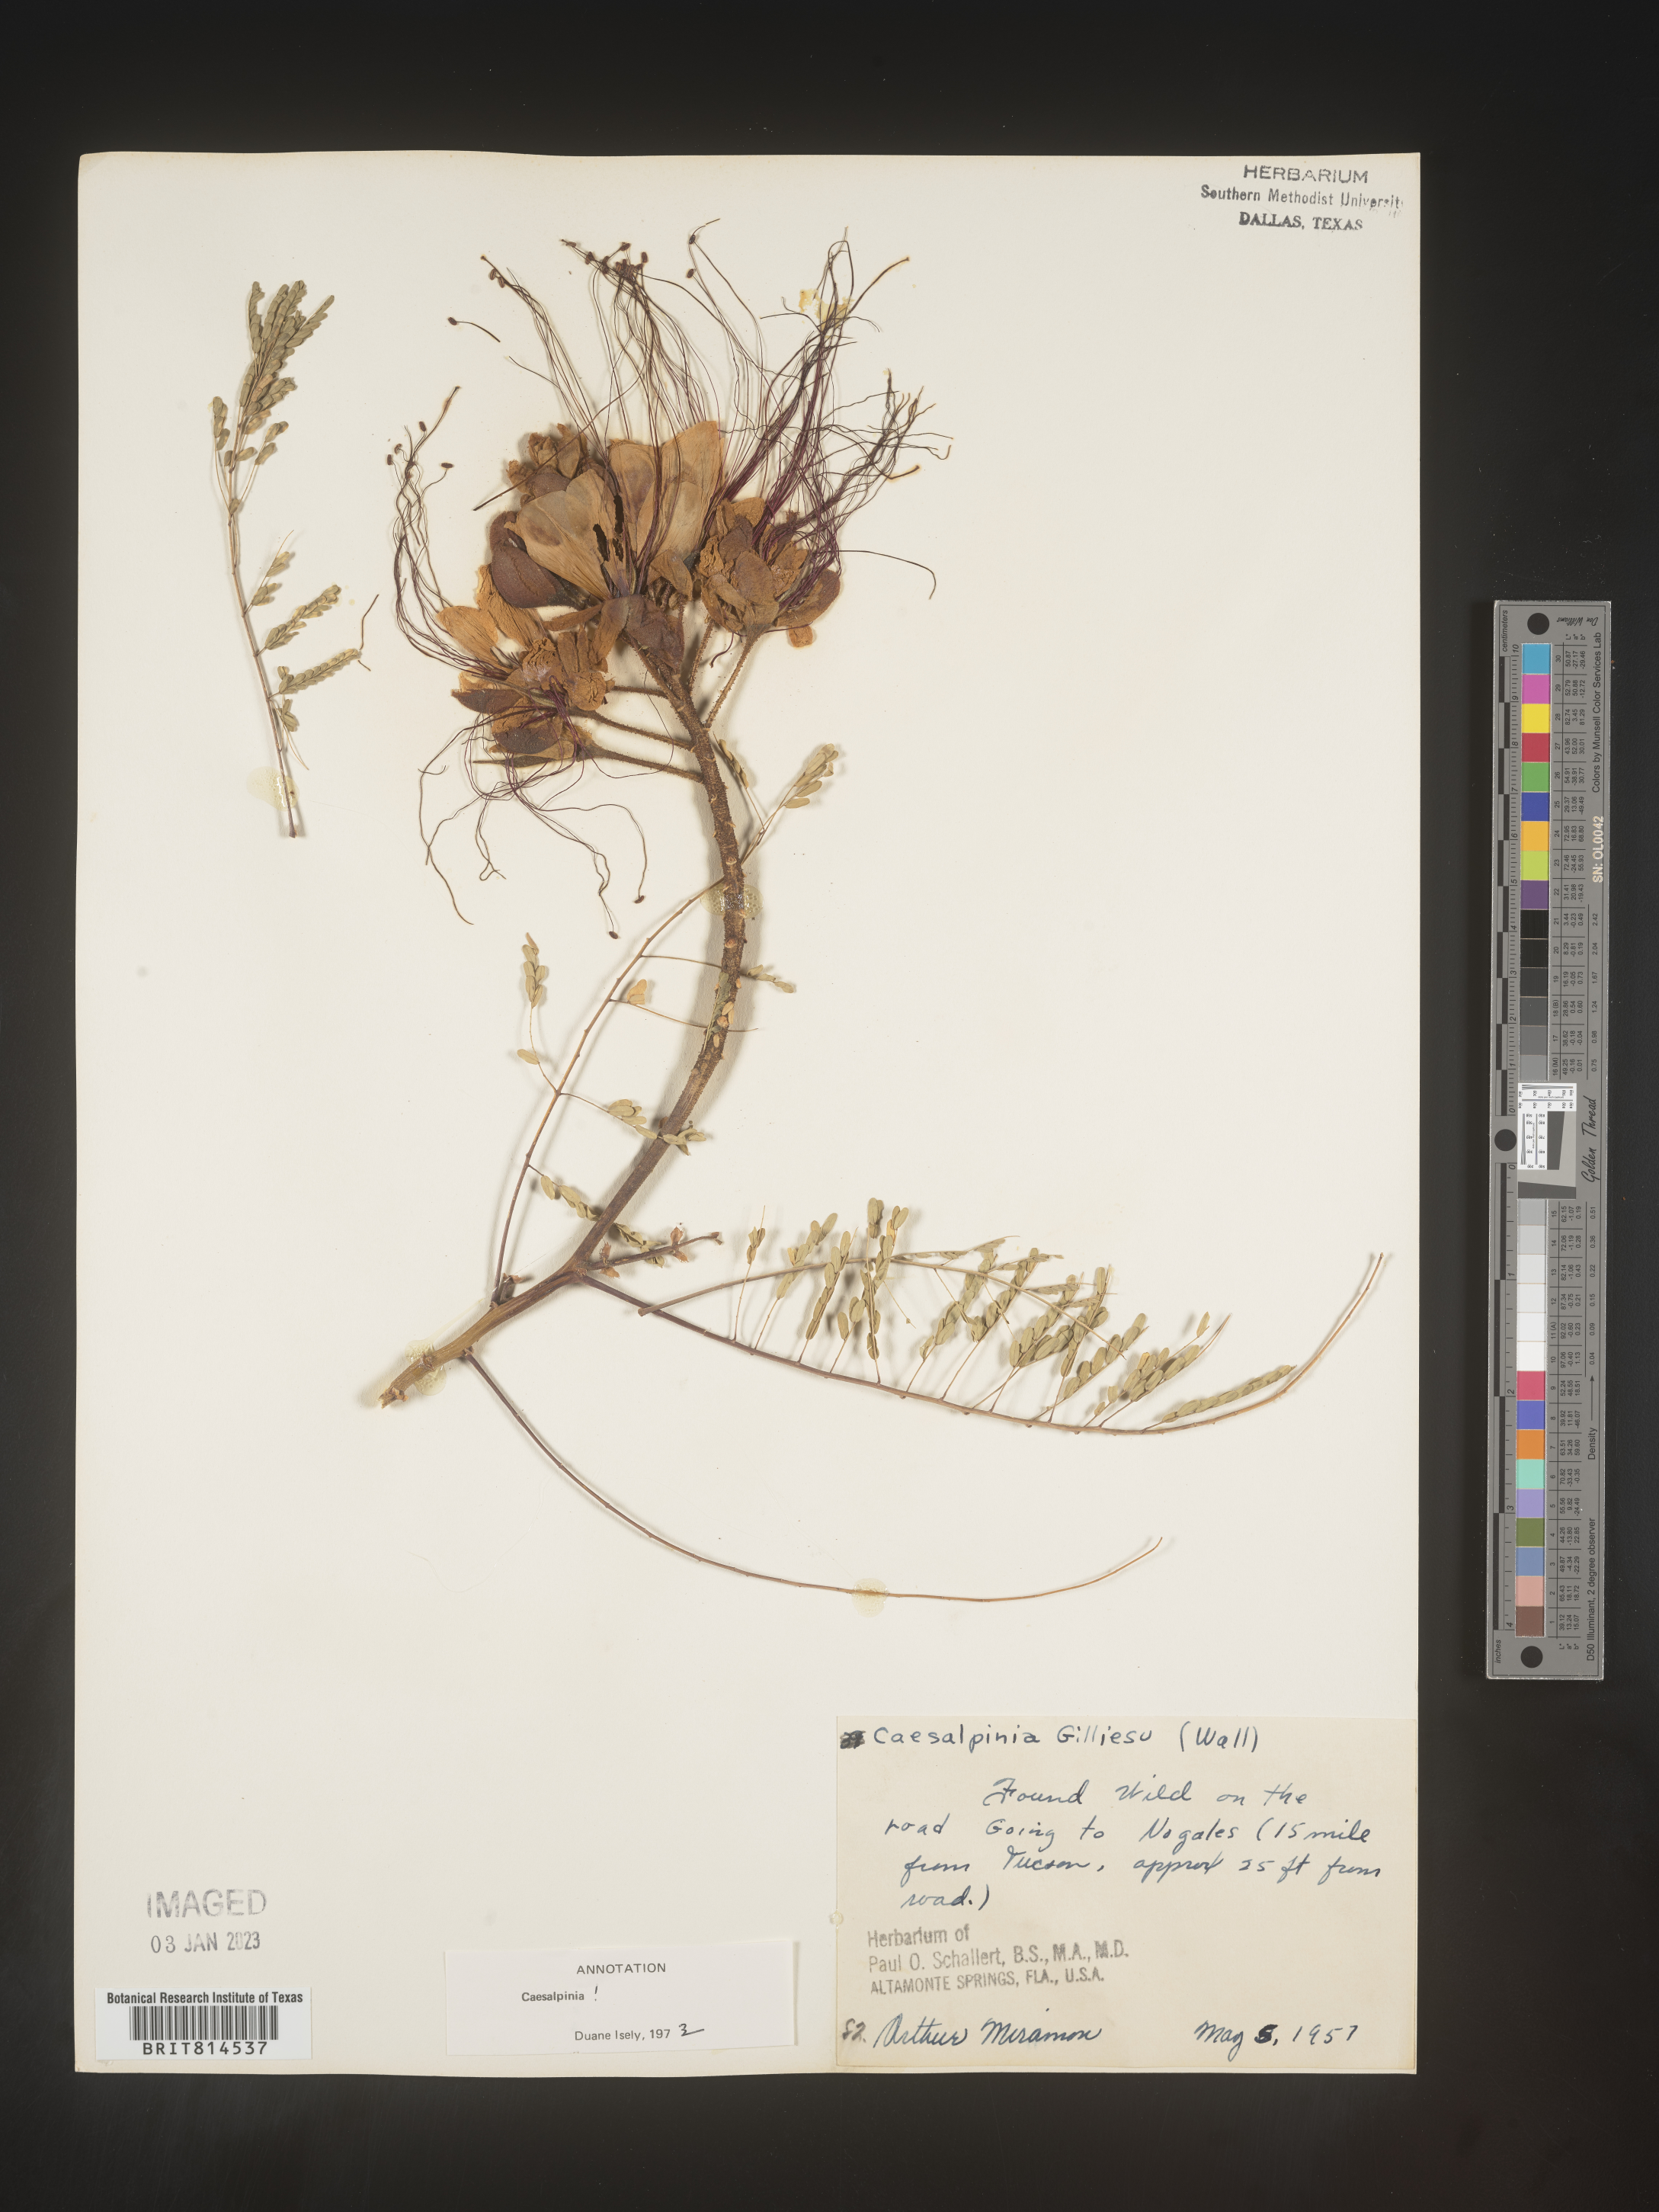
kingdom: Plantae
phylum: Tracheophyta
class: Magnoliopsida
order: Fabales
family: Fabaceae
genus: Caesalpinia
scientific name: Caesalpinia
